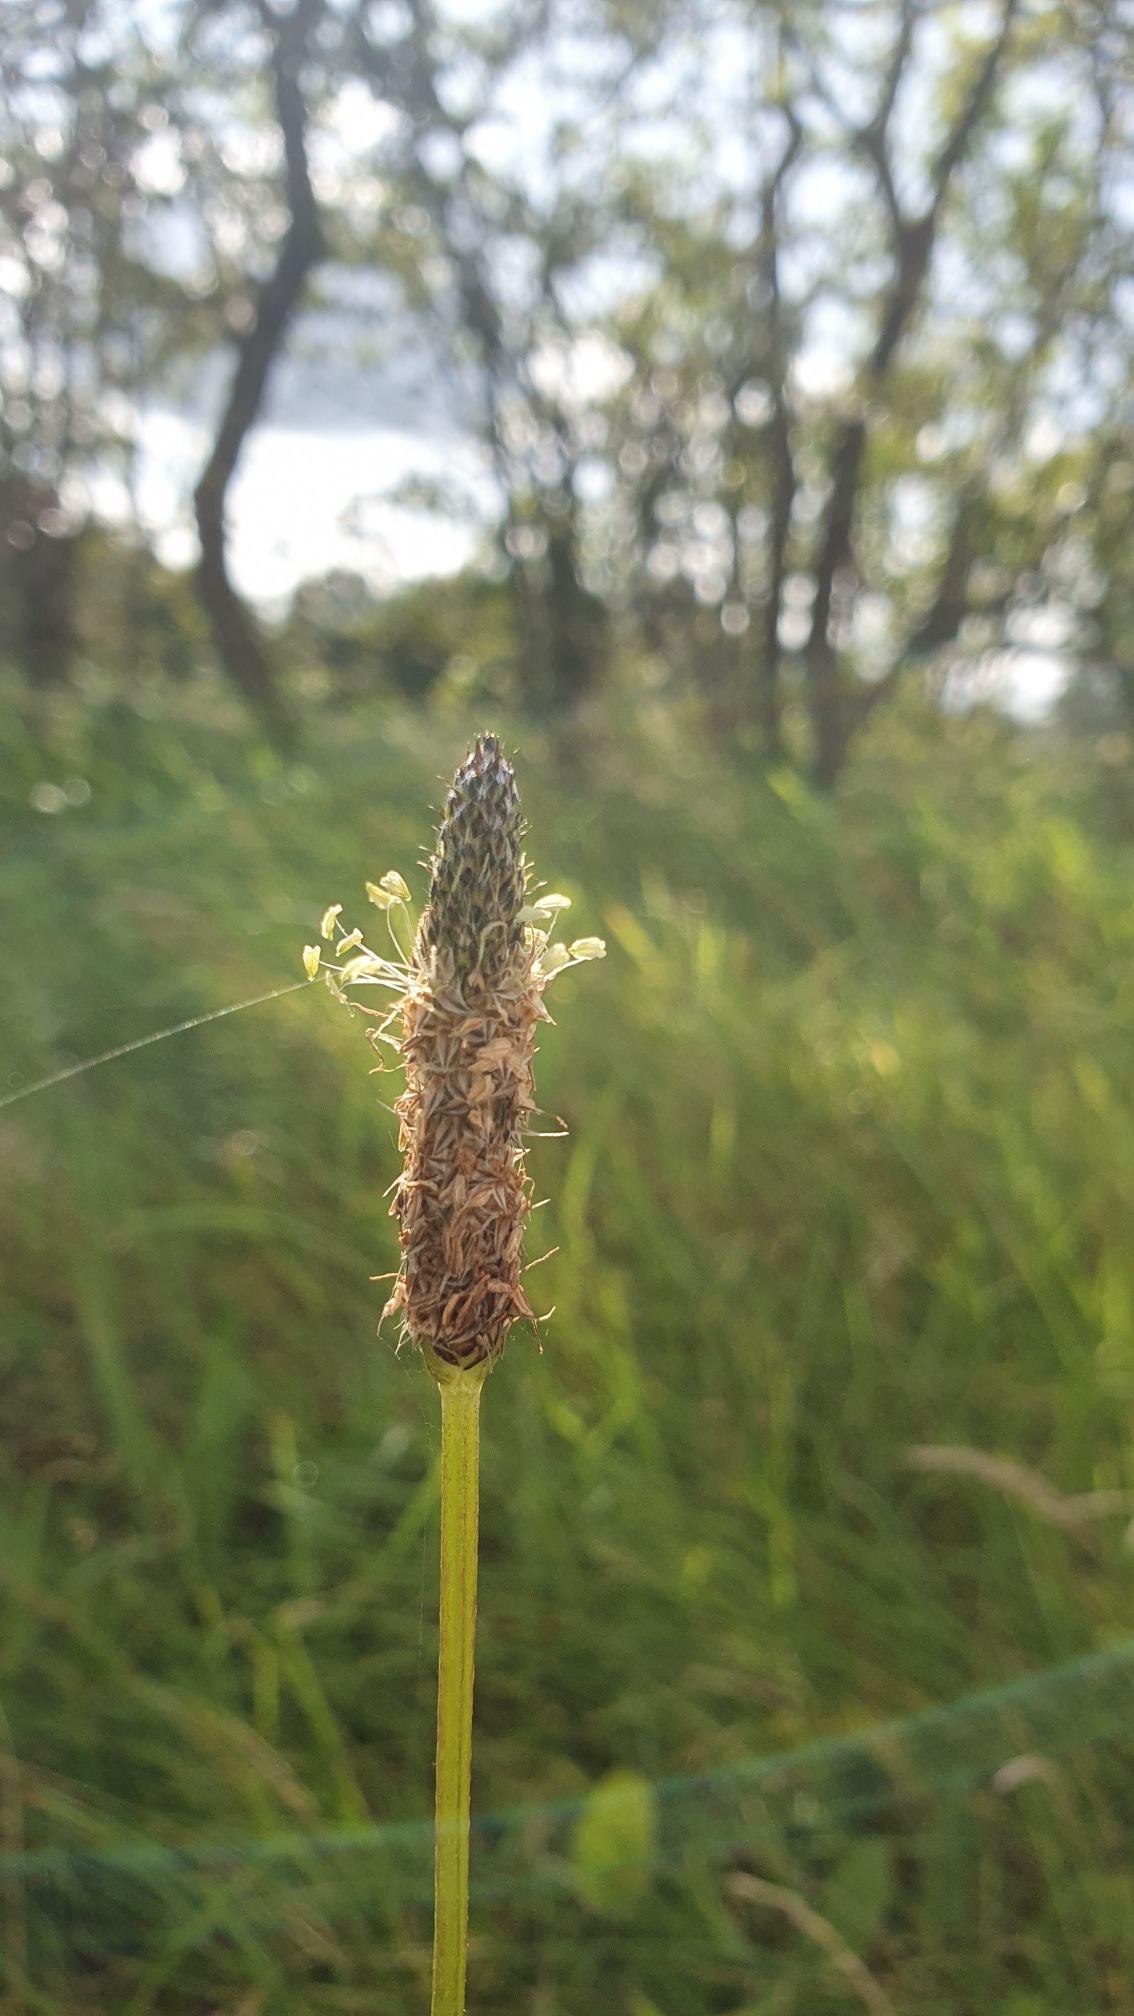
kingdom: Plantae
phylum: Tracheophyta
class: Magnoliopsida
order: Lamiales
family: Plantaginaceae
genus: Plantago
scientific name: Plantago lanceolata
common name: Lancet-vejbred
